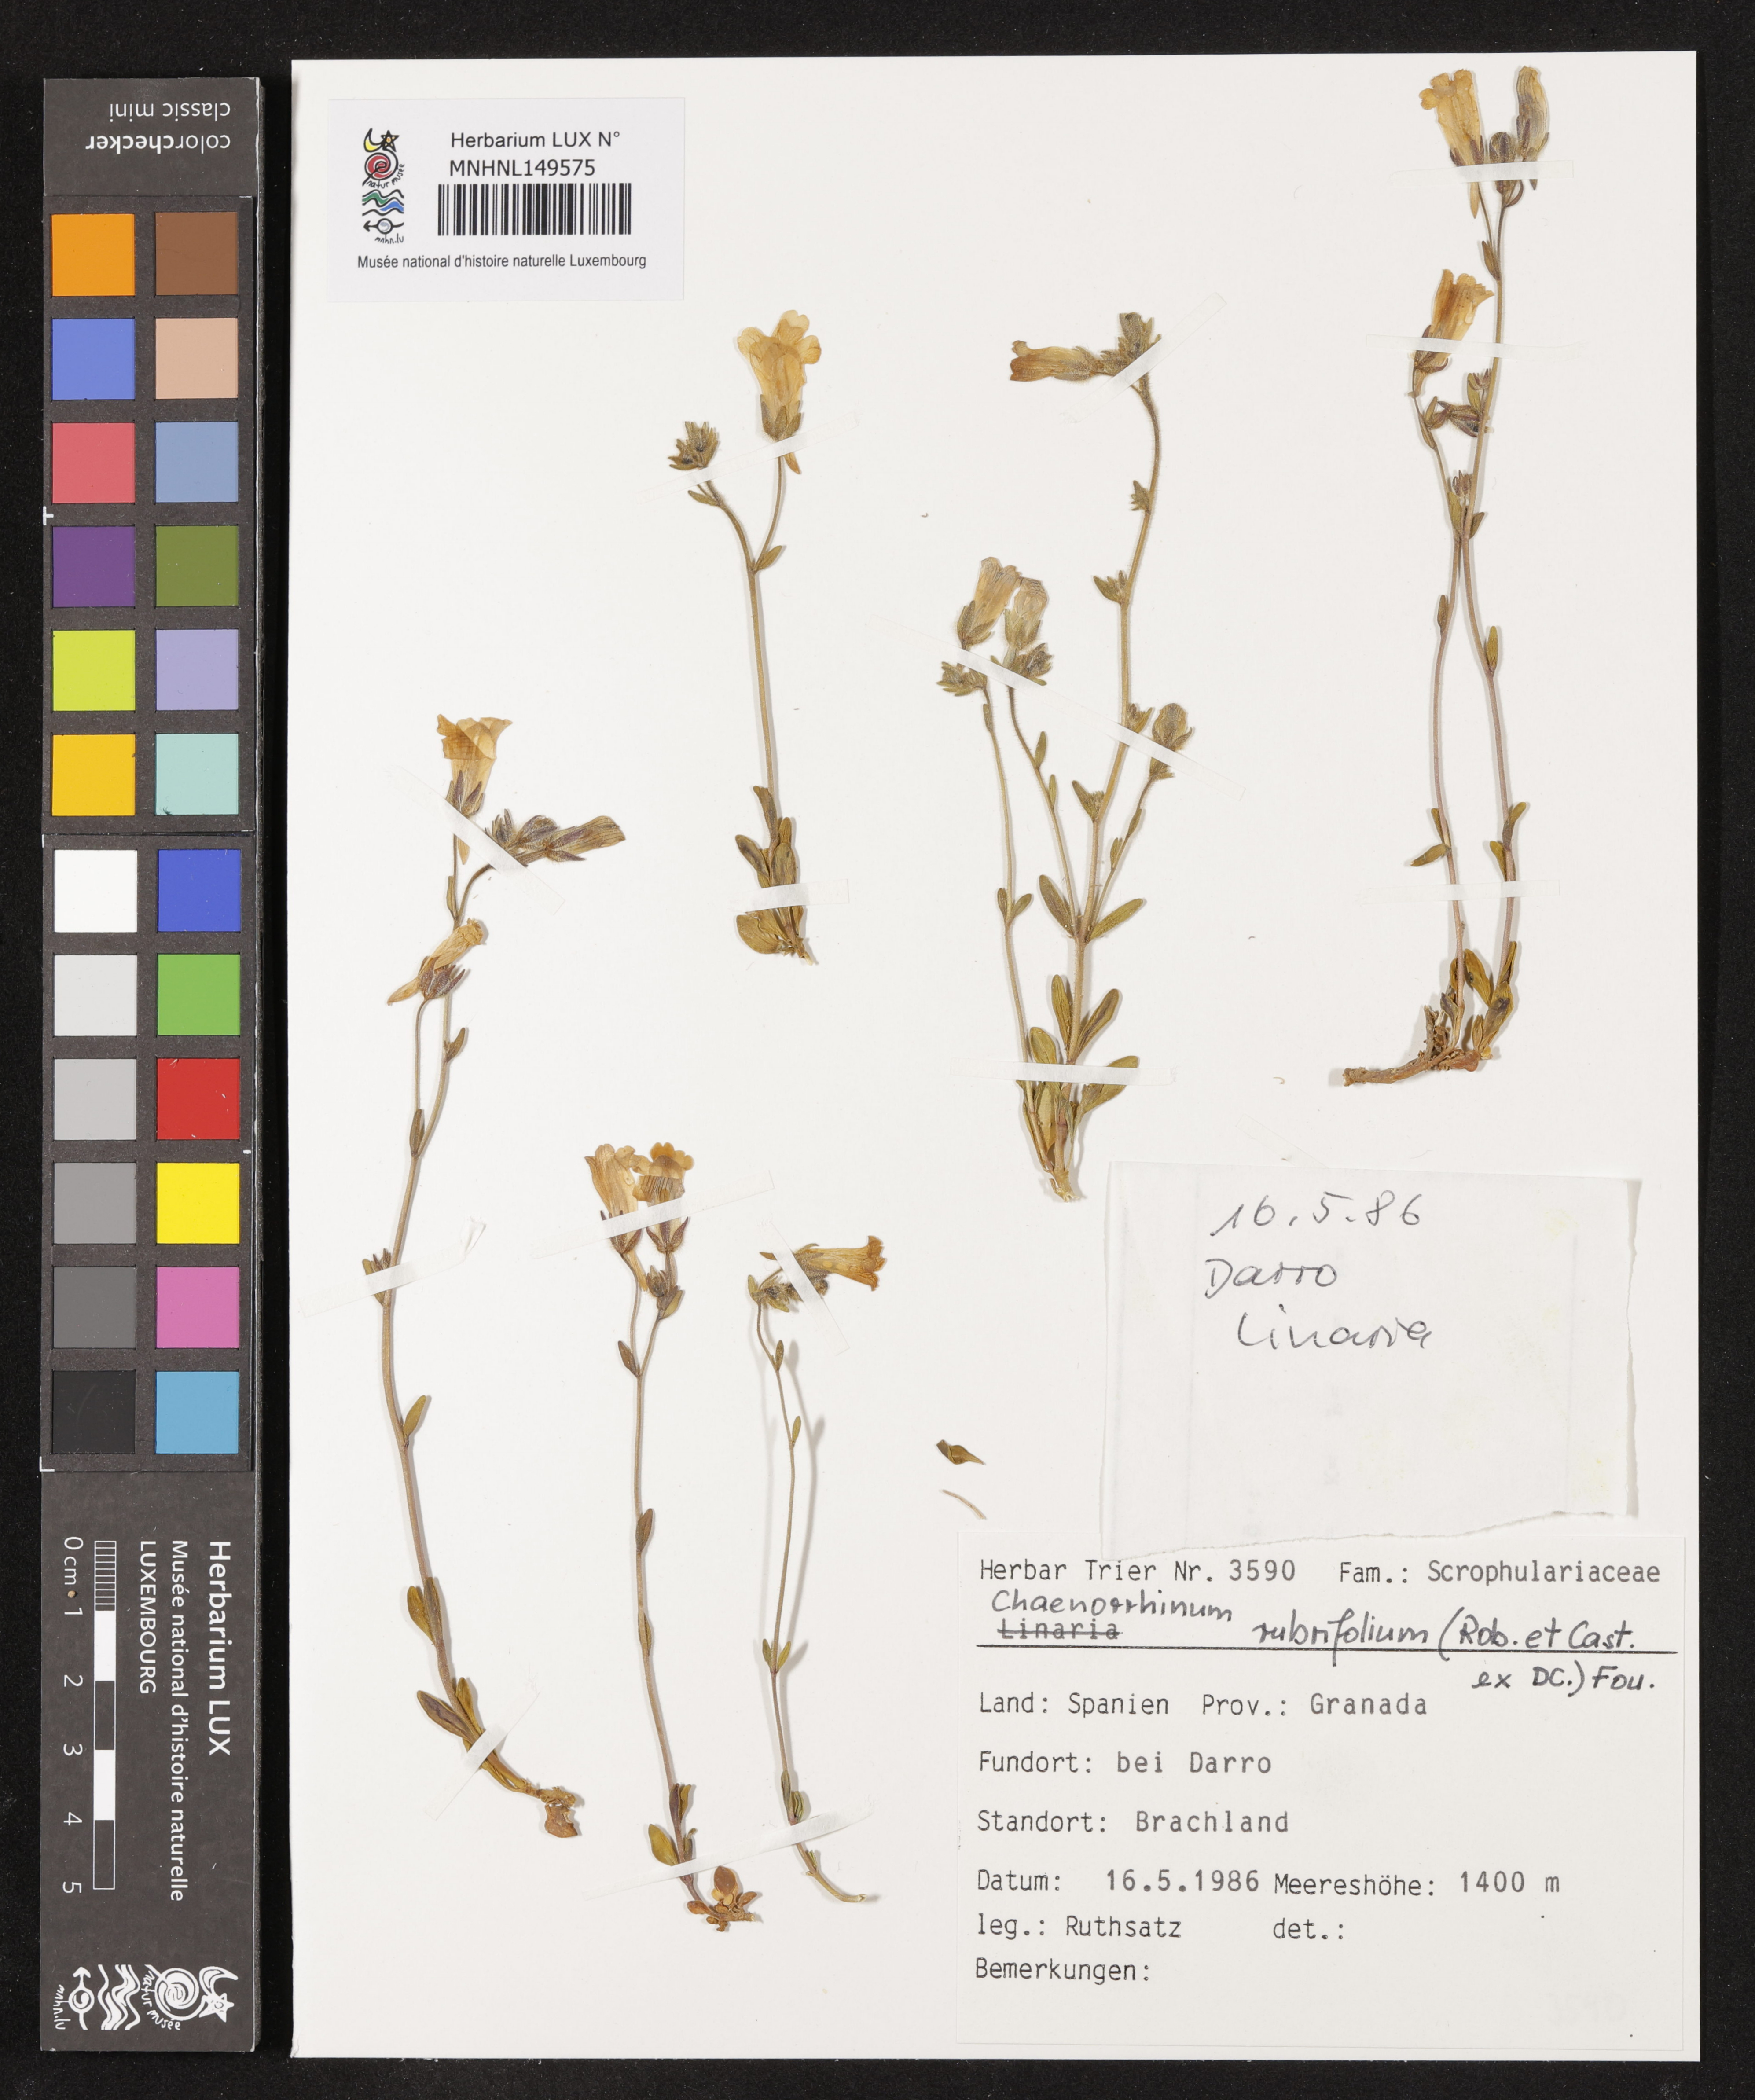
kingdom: Plantae
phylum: Tracheophyta
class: Magnoliopsida
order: Lamiales
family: Plantaginaceae
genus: Chaenorhinum
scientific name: Chaenorhinum rubrifolium
